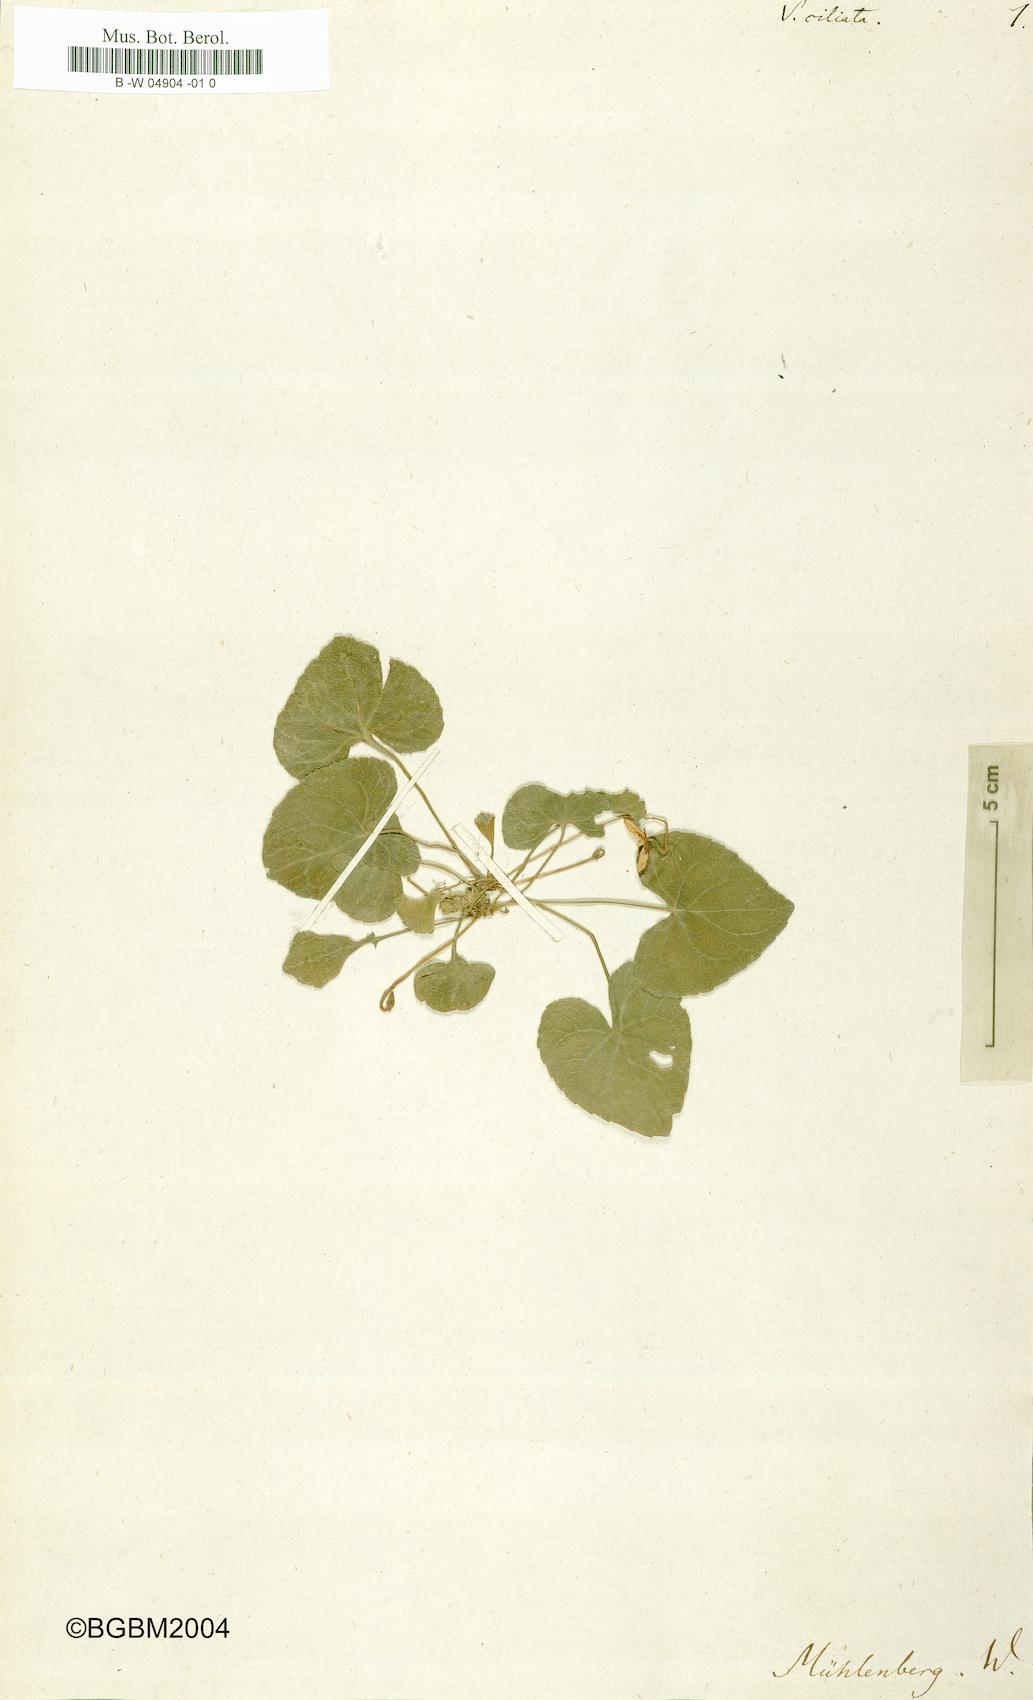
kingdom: Plantae
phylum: Tracheophyta
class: Magnoliopsida
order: Malpighiales
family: Violaceae
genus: Viola
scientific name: Viola
